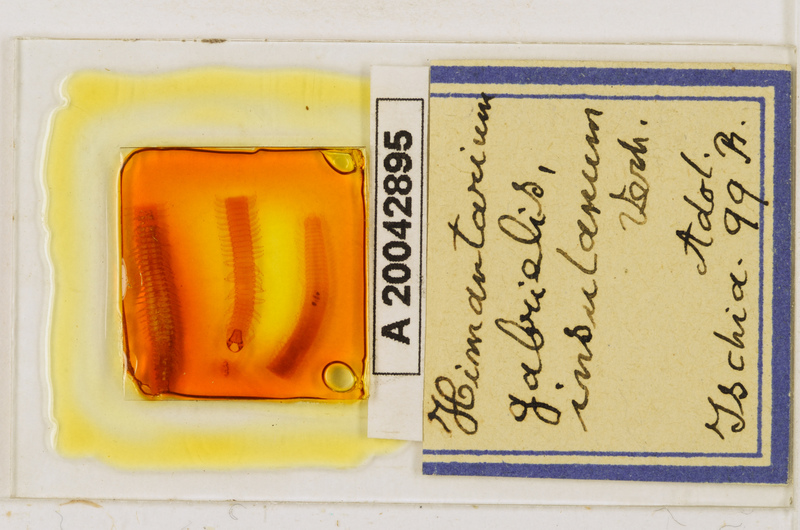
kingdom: Animalia
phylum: Arthropoda
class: Chilopoda
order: Geophilomorpha
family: Himantariidae
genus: Himantarium
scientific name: Himantarium gabrielis
